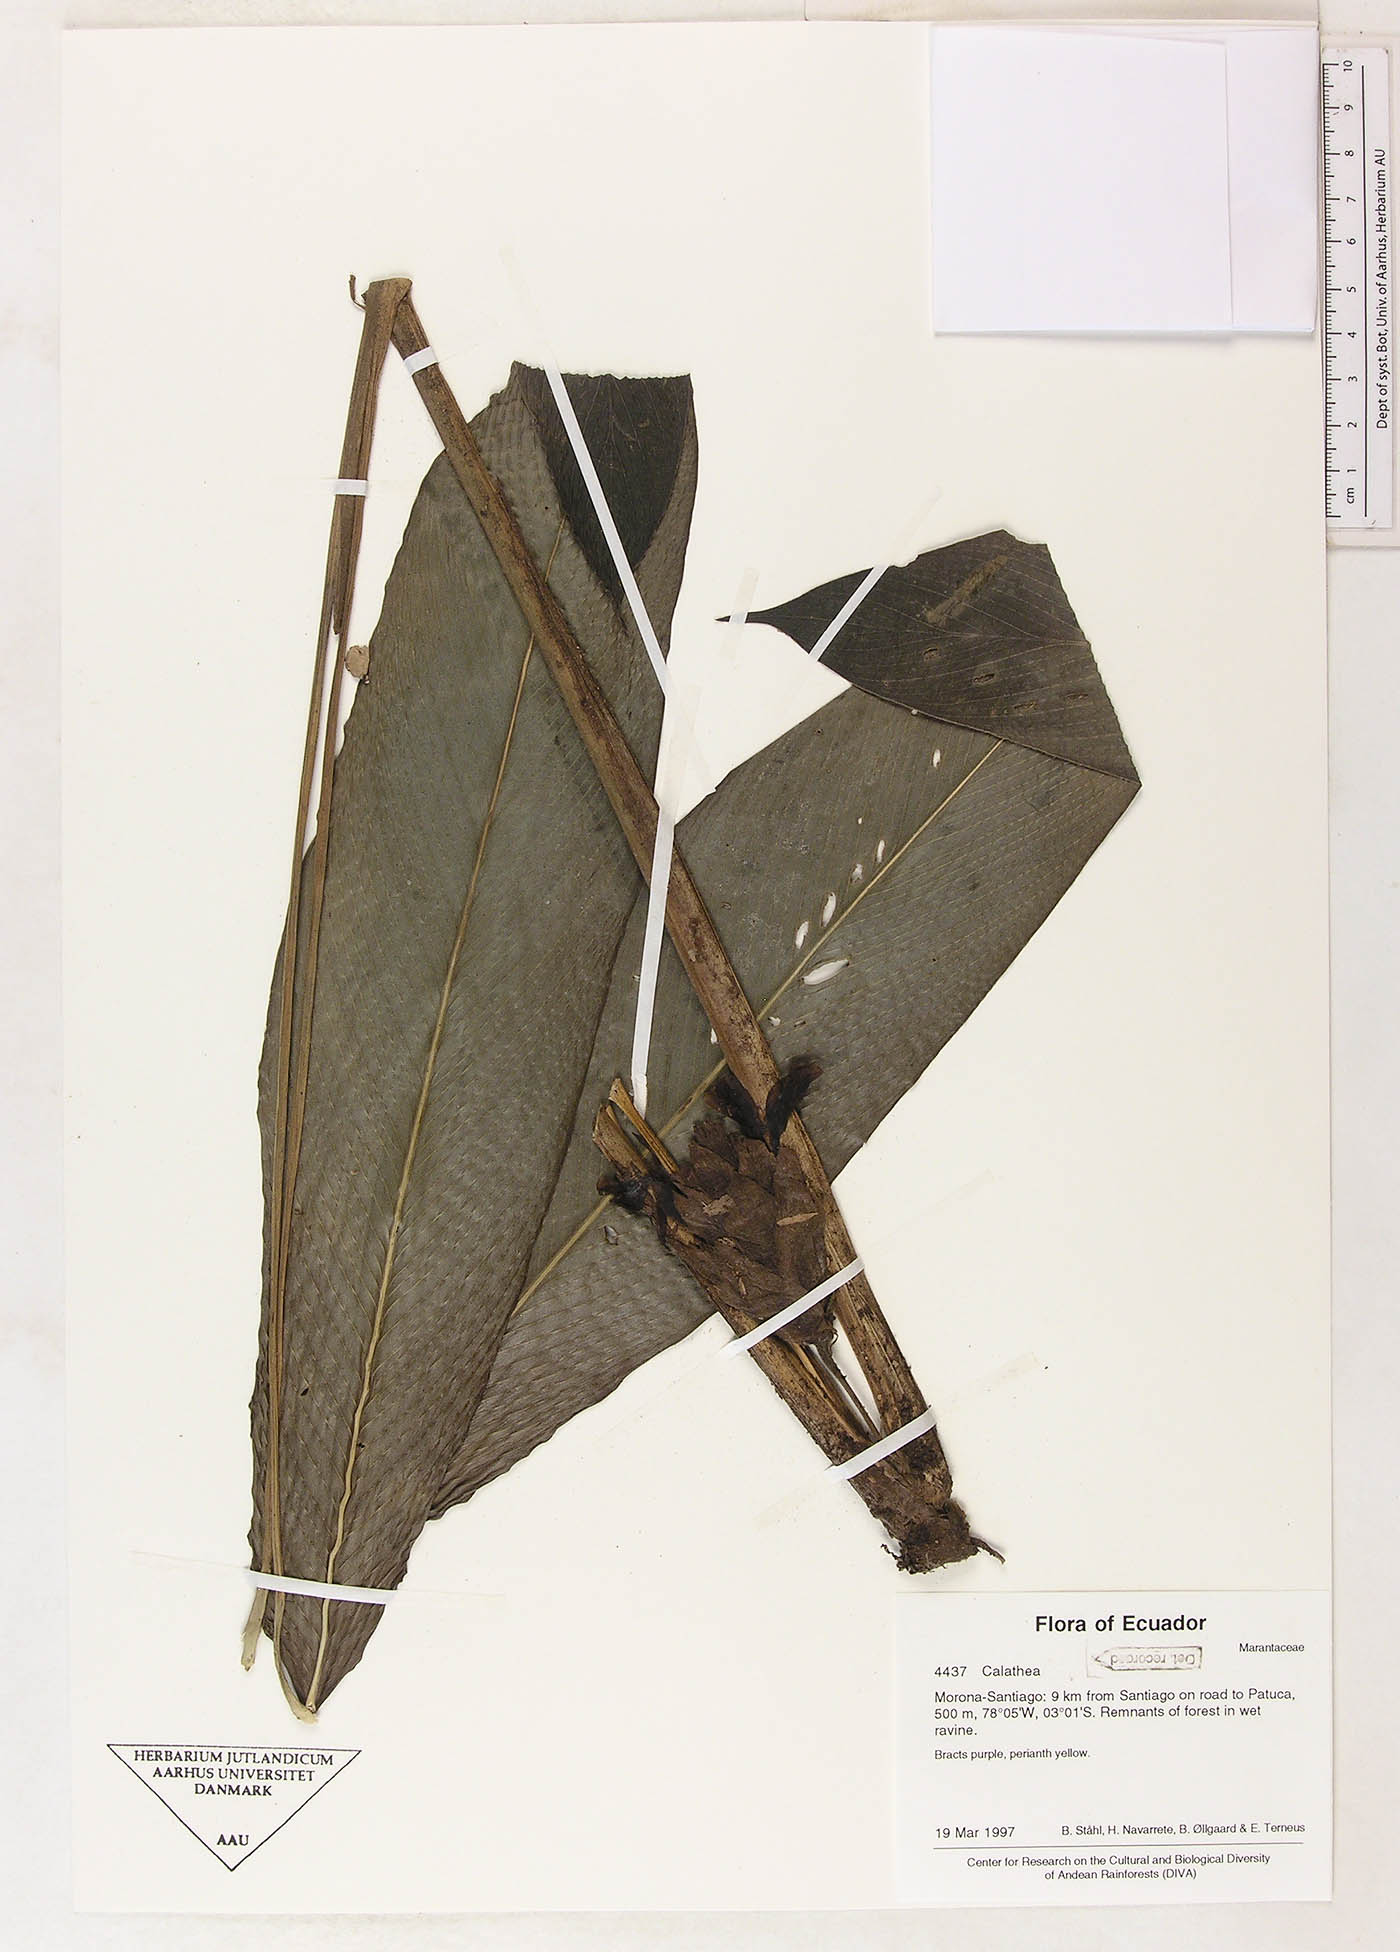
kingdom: Plantae
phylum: Tracheophyta
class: Magnoliopsida
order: Laurales
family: Lauraceae
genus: Goeppertia
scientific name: Goeppertia
